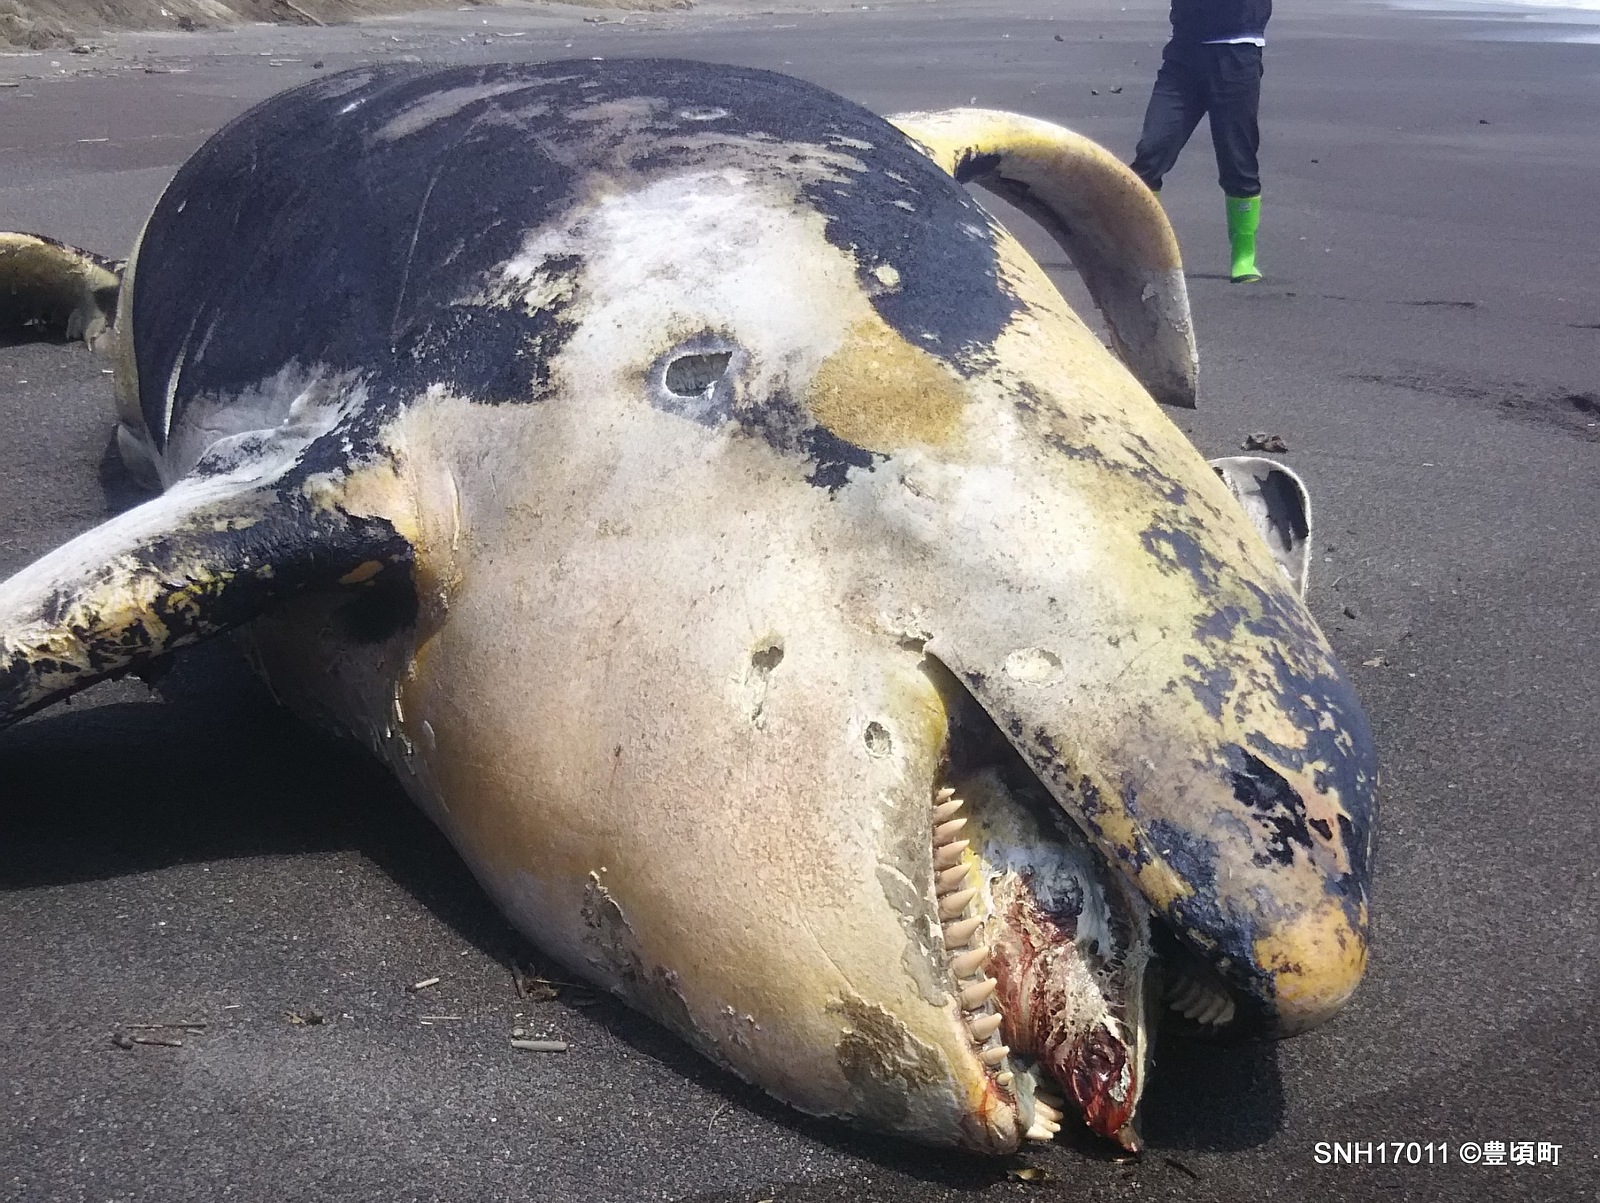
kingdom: Animalia
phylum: Chordata
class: Mammalia
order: Cetacea
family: Delphinidae
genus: Orcinus
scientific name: Orcinus orca
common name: Killer whale
